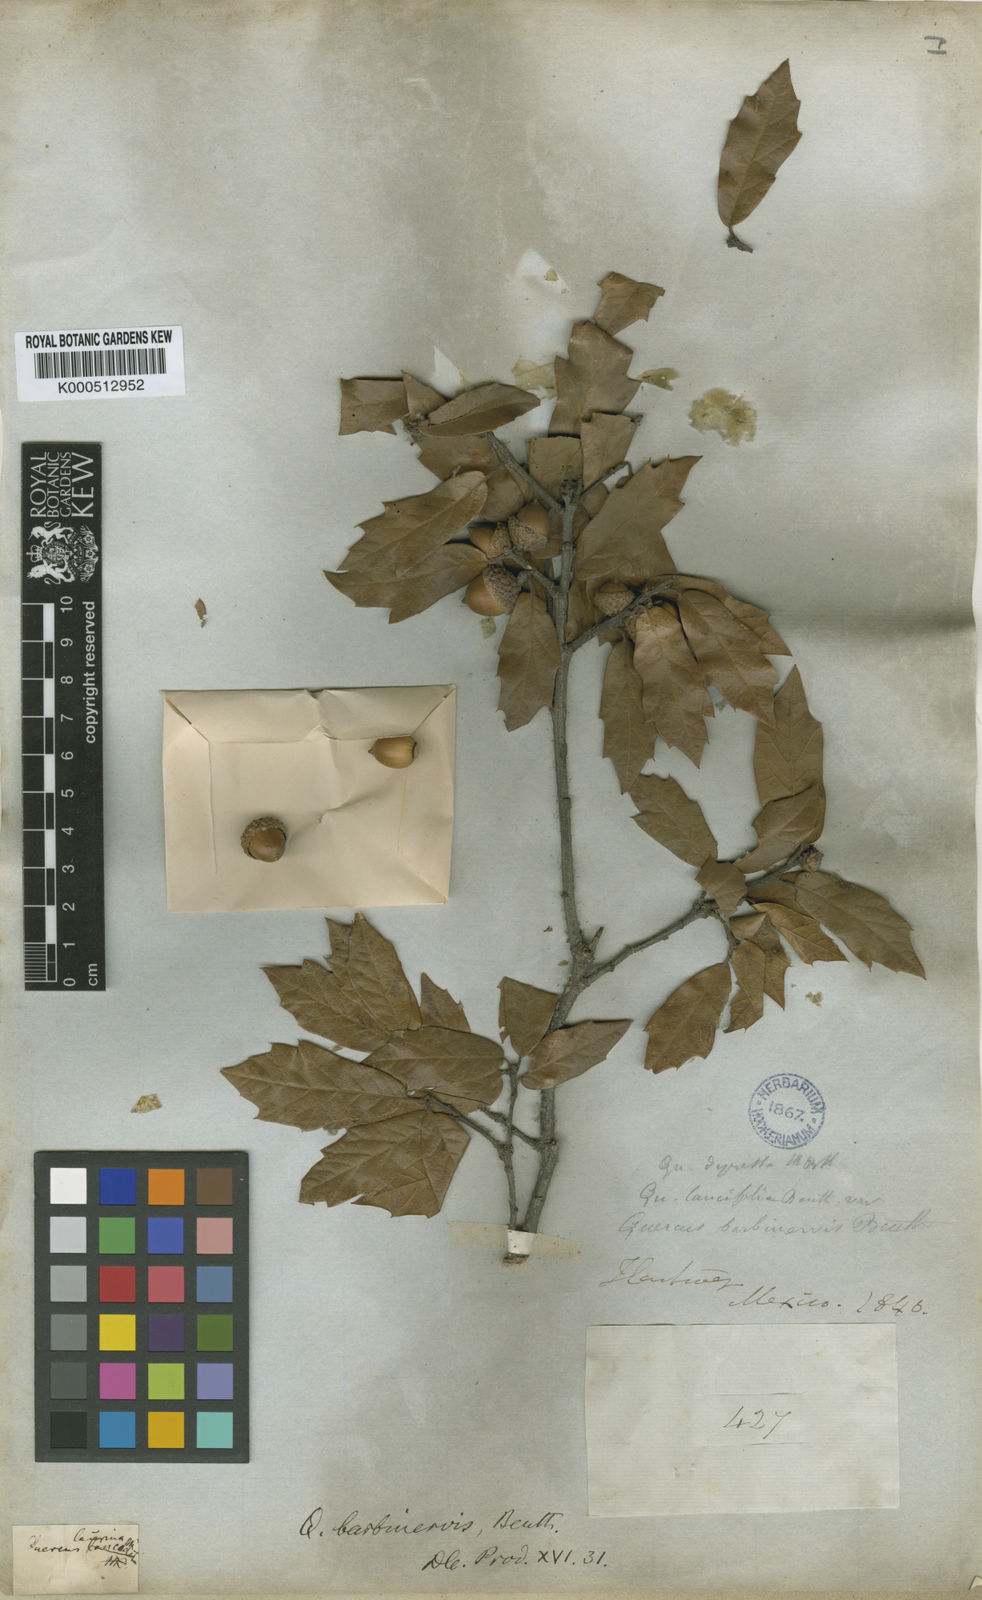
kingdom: Plantae
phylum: Tracheophyta
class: Magnoliopsida
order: Fagales
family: Fagaceae
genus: Quercus
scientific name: Quercus laurina
